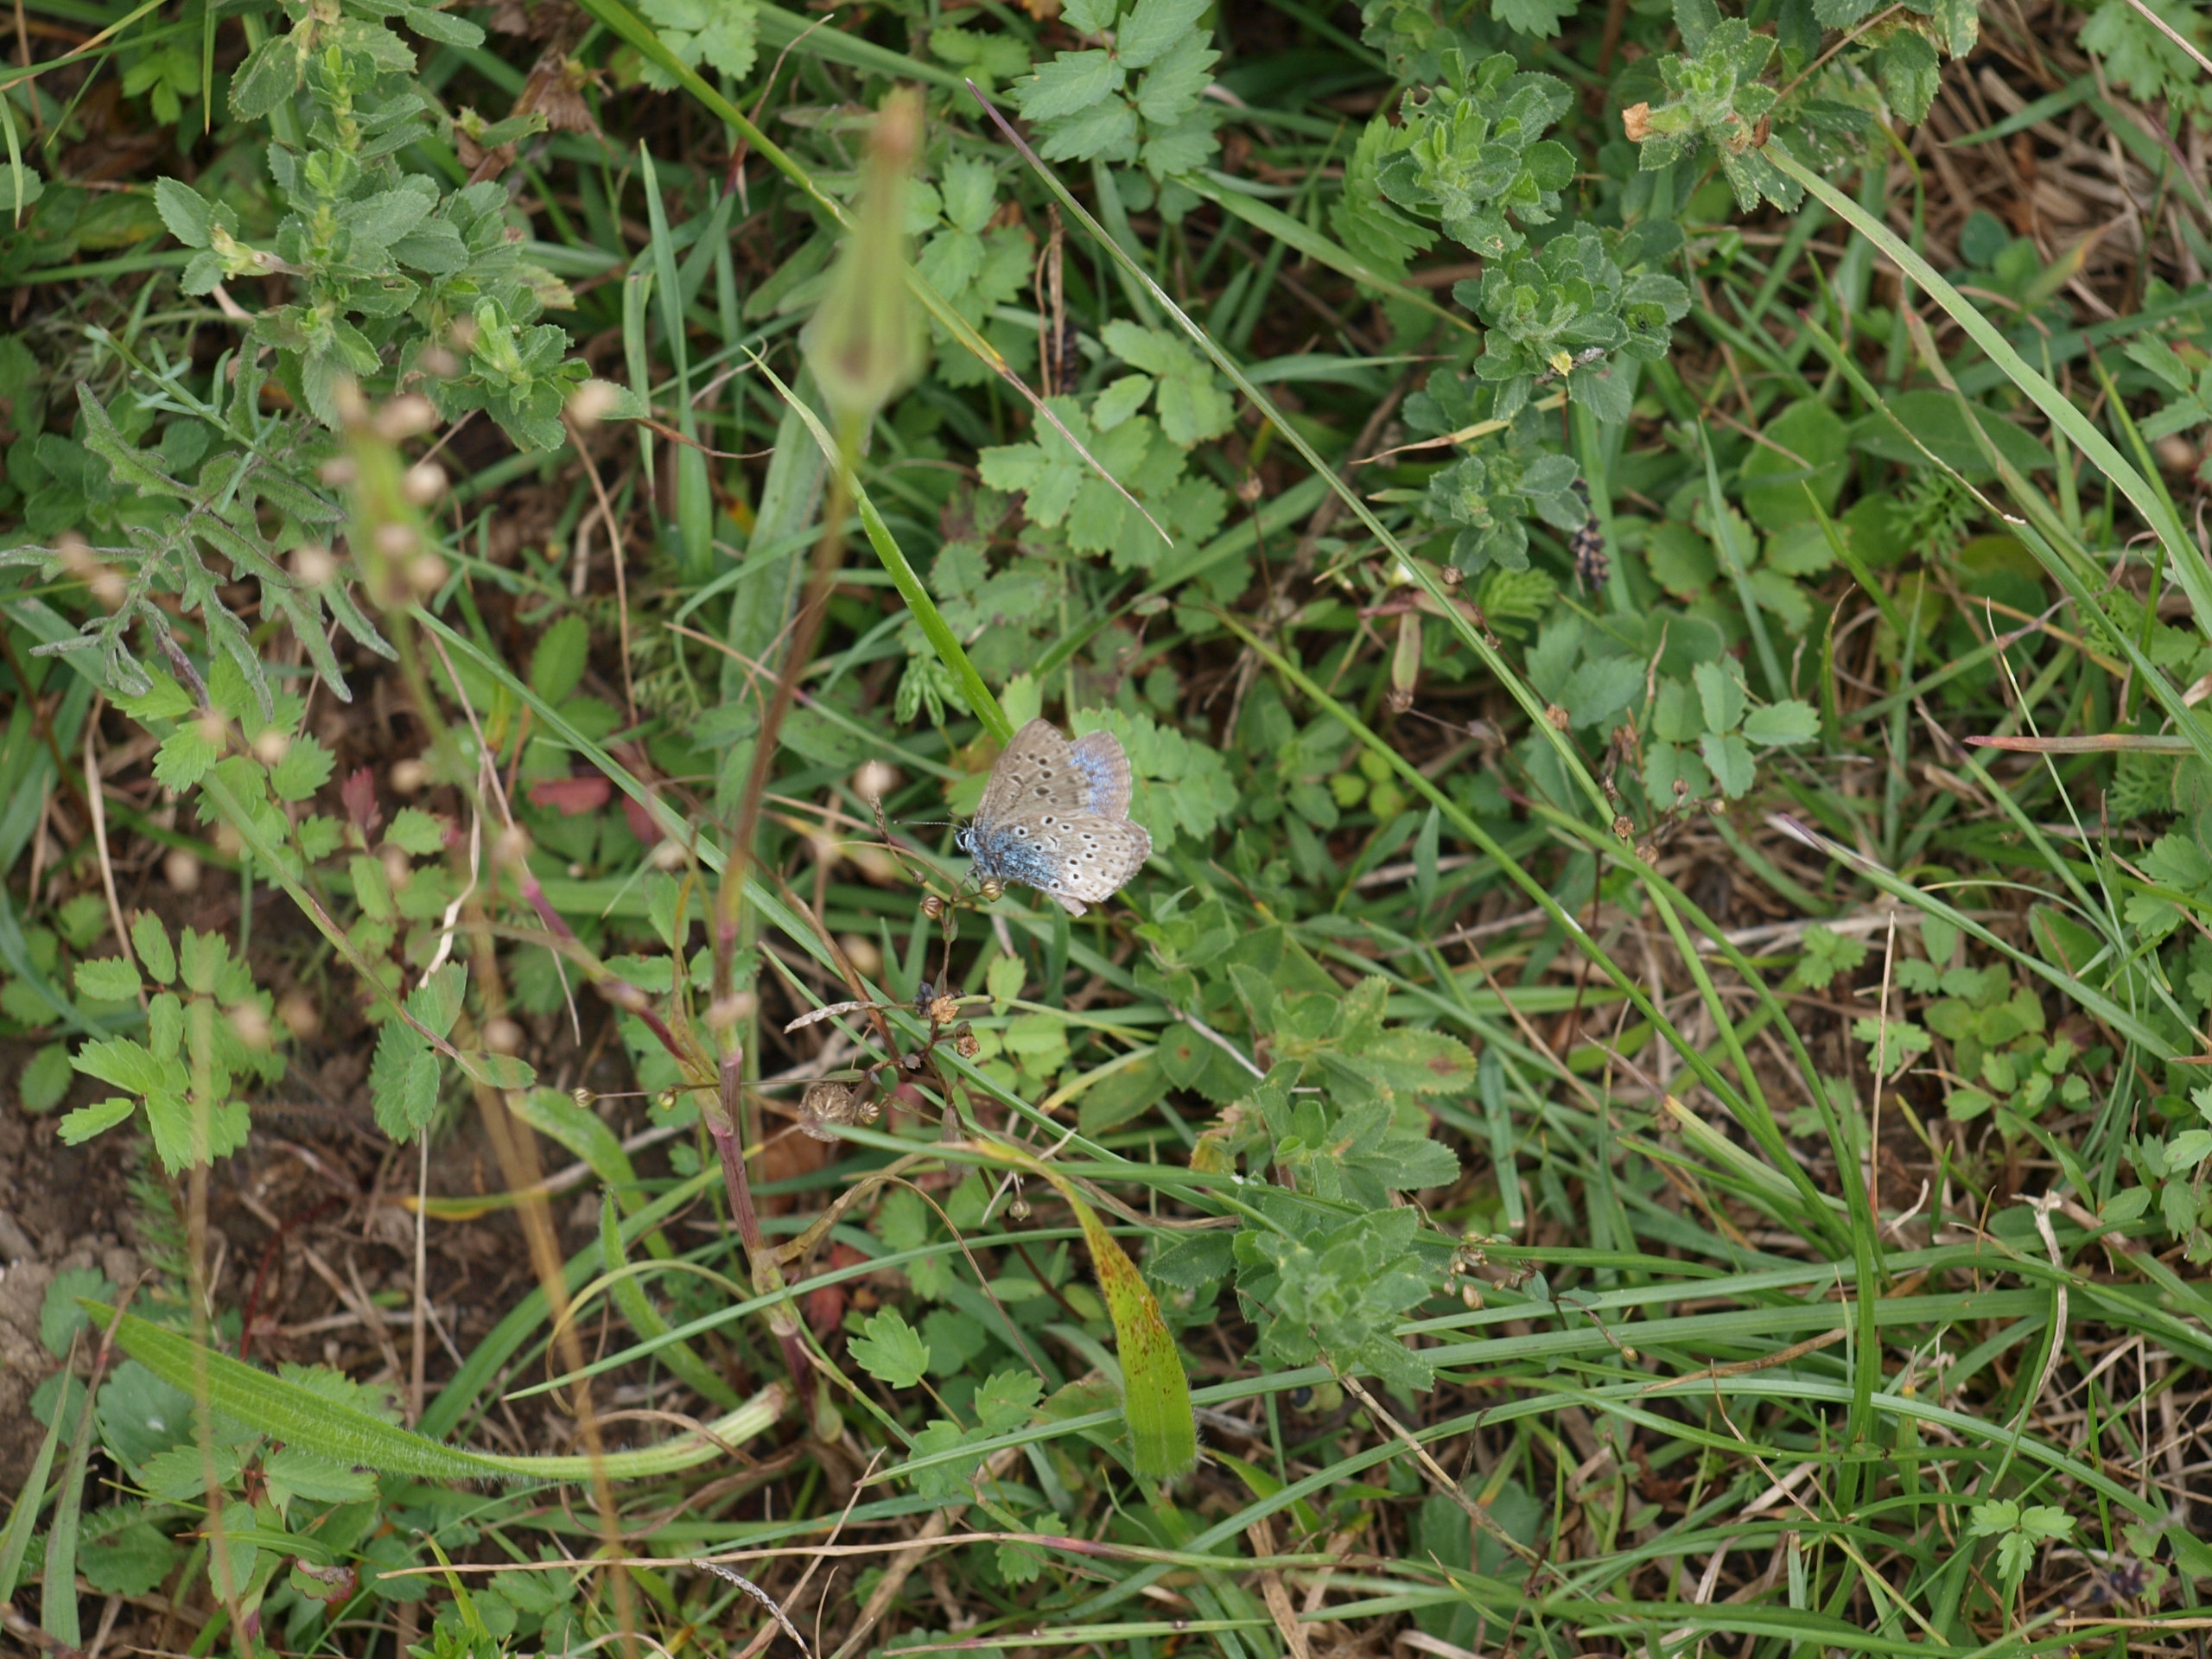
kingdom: Animalia
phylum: Arthropoda
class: Insecta
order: Lepidoptera
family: Lycaenidae
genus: Maculinea
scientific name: Maculinea arion
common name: Sortplettet blåfugl
